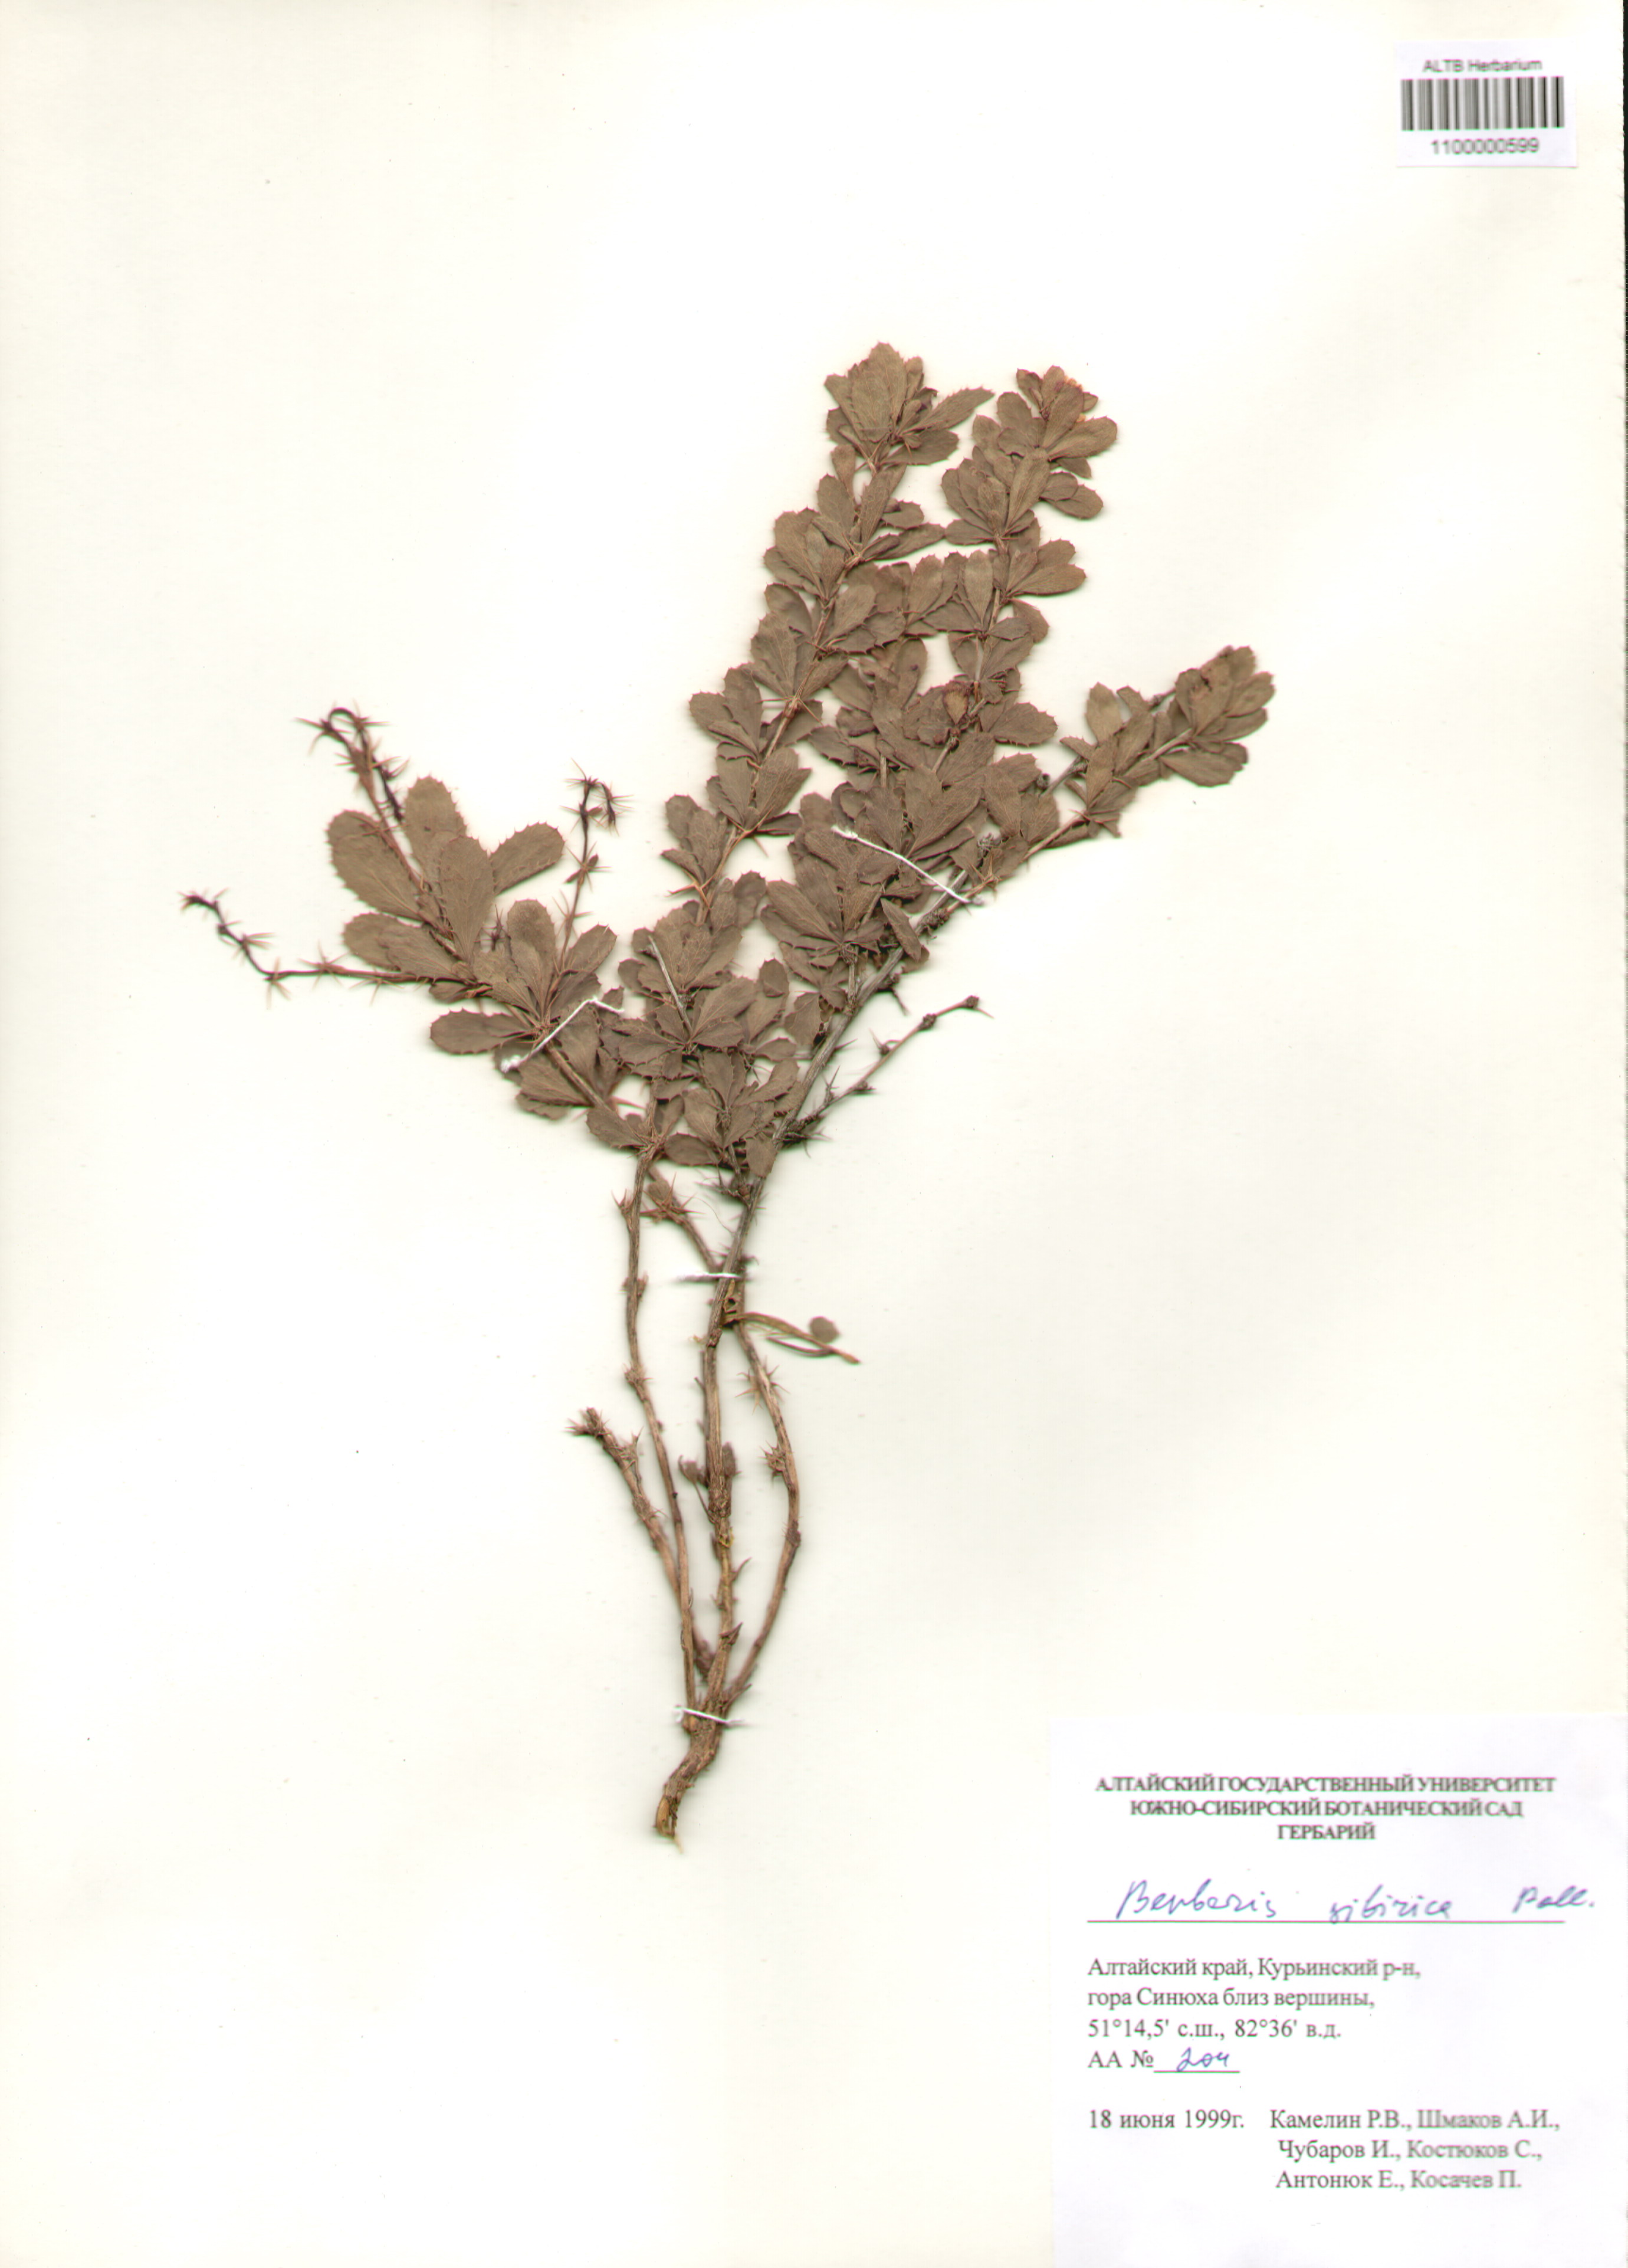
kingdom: Plantae
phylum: Tracheophyta
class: Magnoliopsida
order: Ranunculales
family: Berberidaceae
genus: Berberis
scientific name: Berberis sibirica
